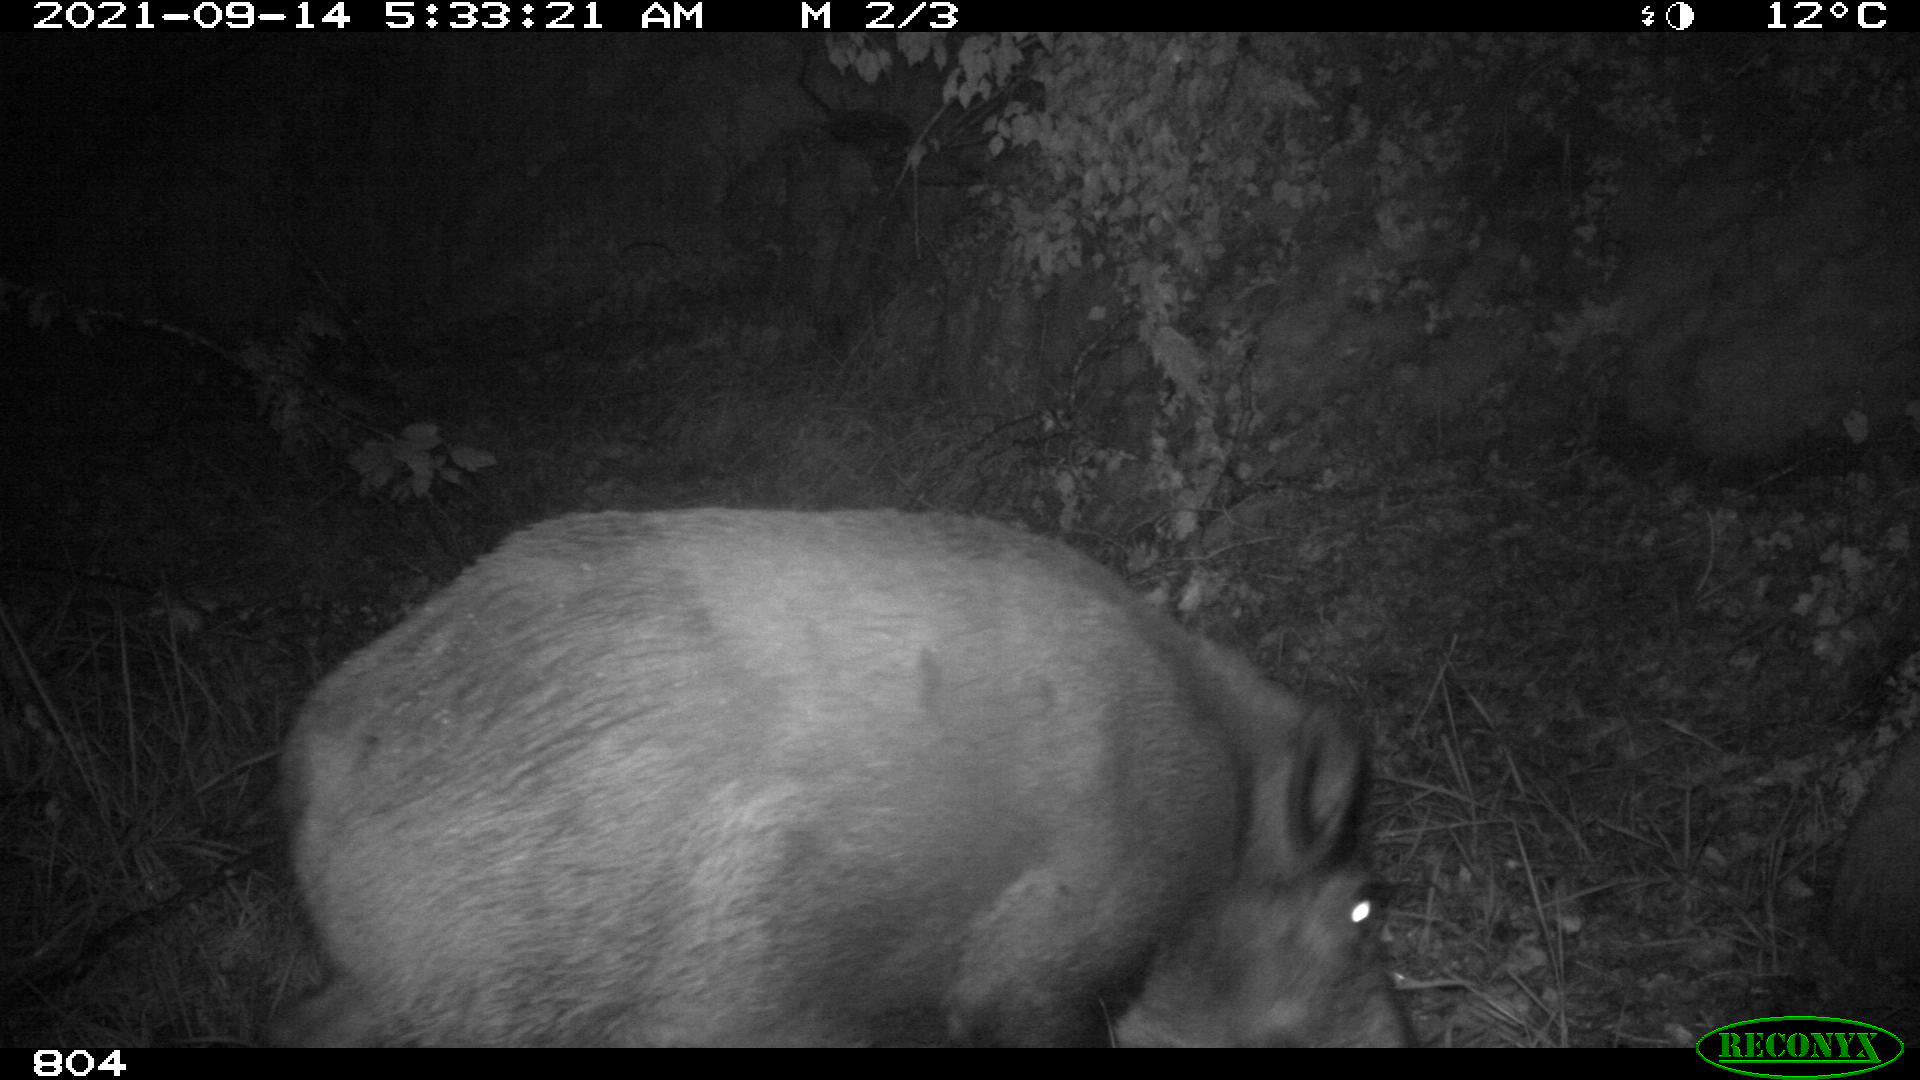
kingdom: Animalia
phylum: Chordata
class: Mammalia
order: Artiodactyla
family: Suidae
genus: Sus
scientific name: Sus scrofa
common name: Wild boar
